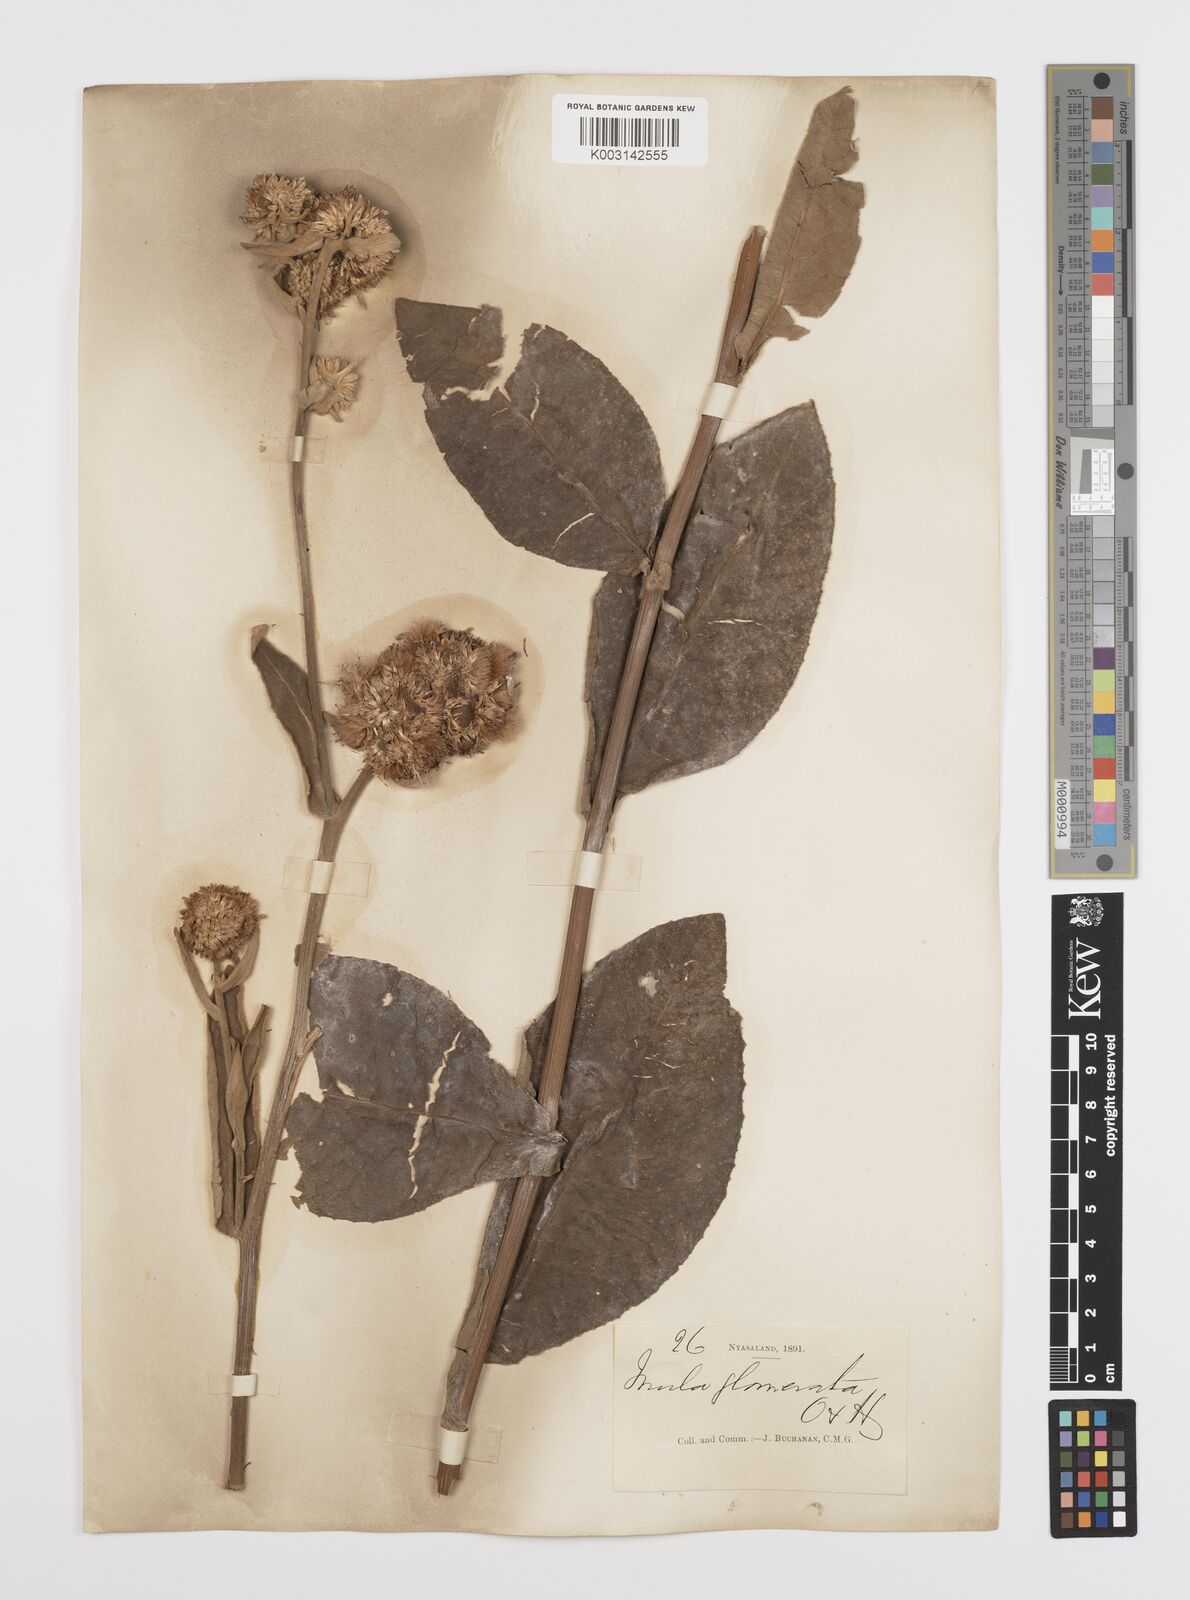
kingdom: Plantae
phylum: Tracheophyta
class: Magnoliopsida
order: Asterales
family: Asteraceae
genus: Inula
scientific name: Inula glomerata
